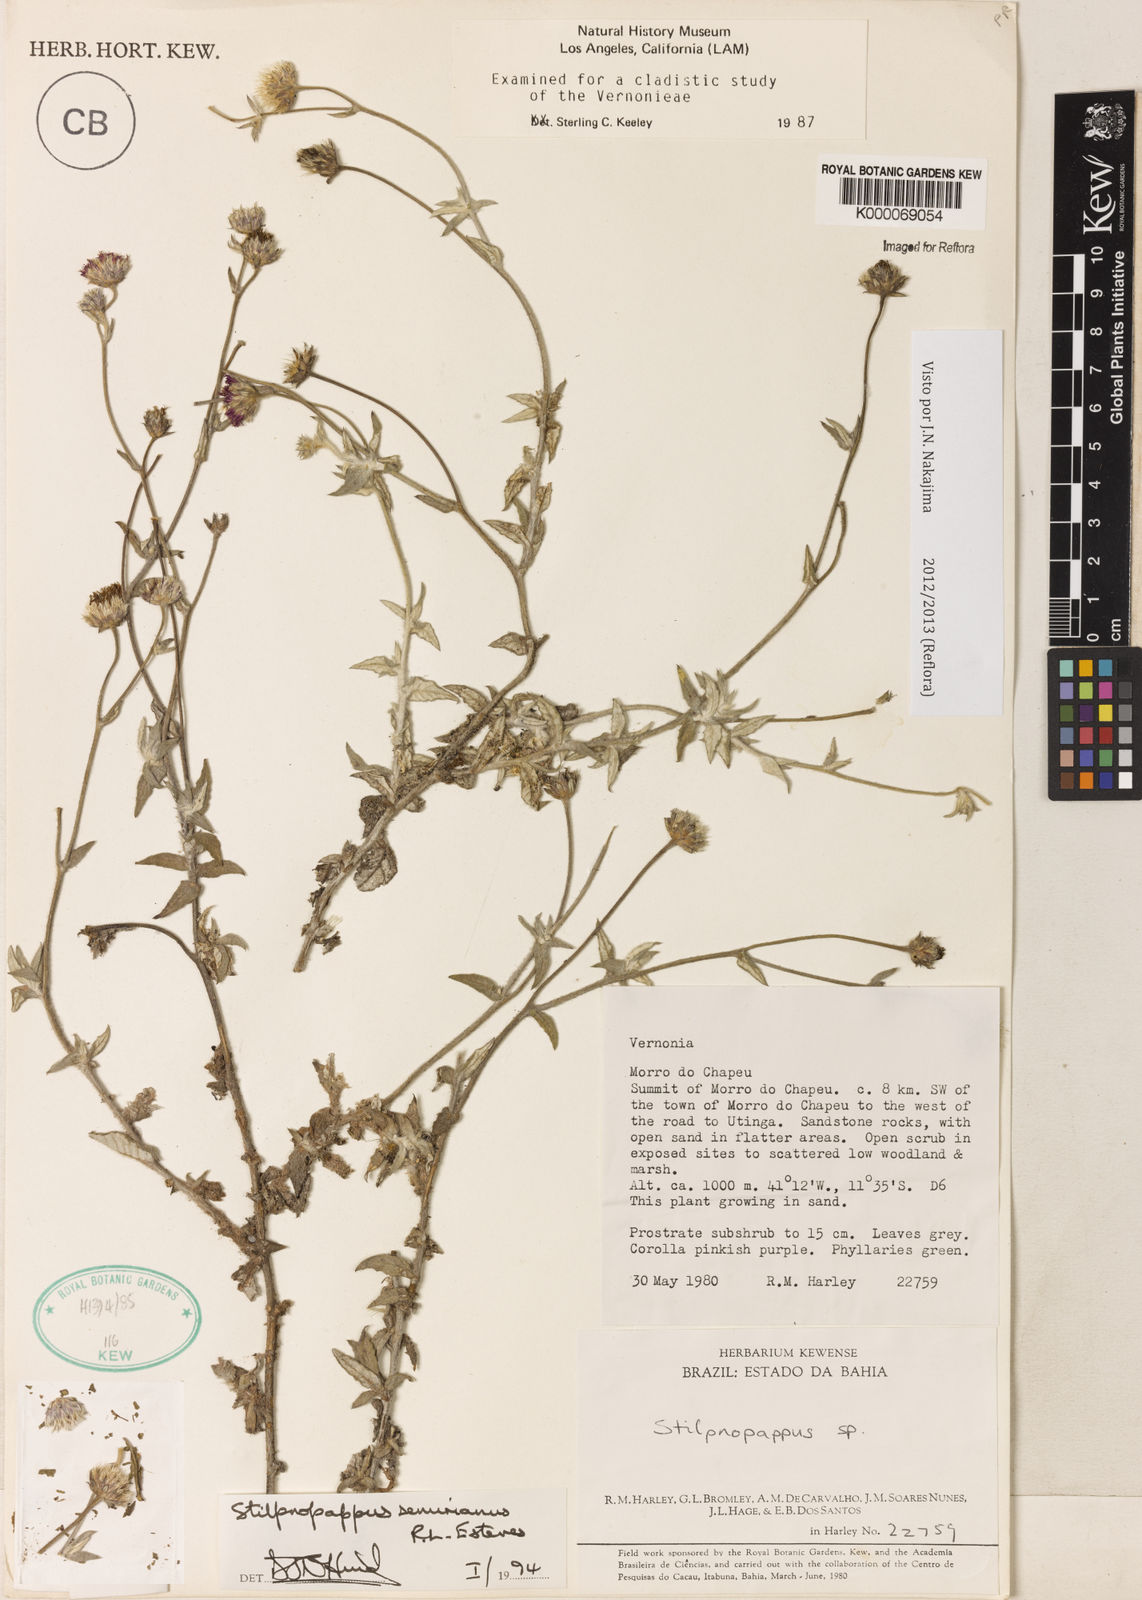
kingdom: Plantae
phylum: Tracheophyta
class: Magnoliopsida
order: Asterales
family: Asteraceae
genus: Stilpnopappus
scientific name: Stilpnopappus semirianus
